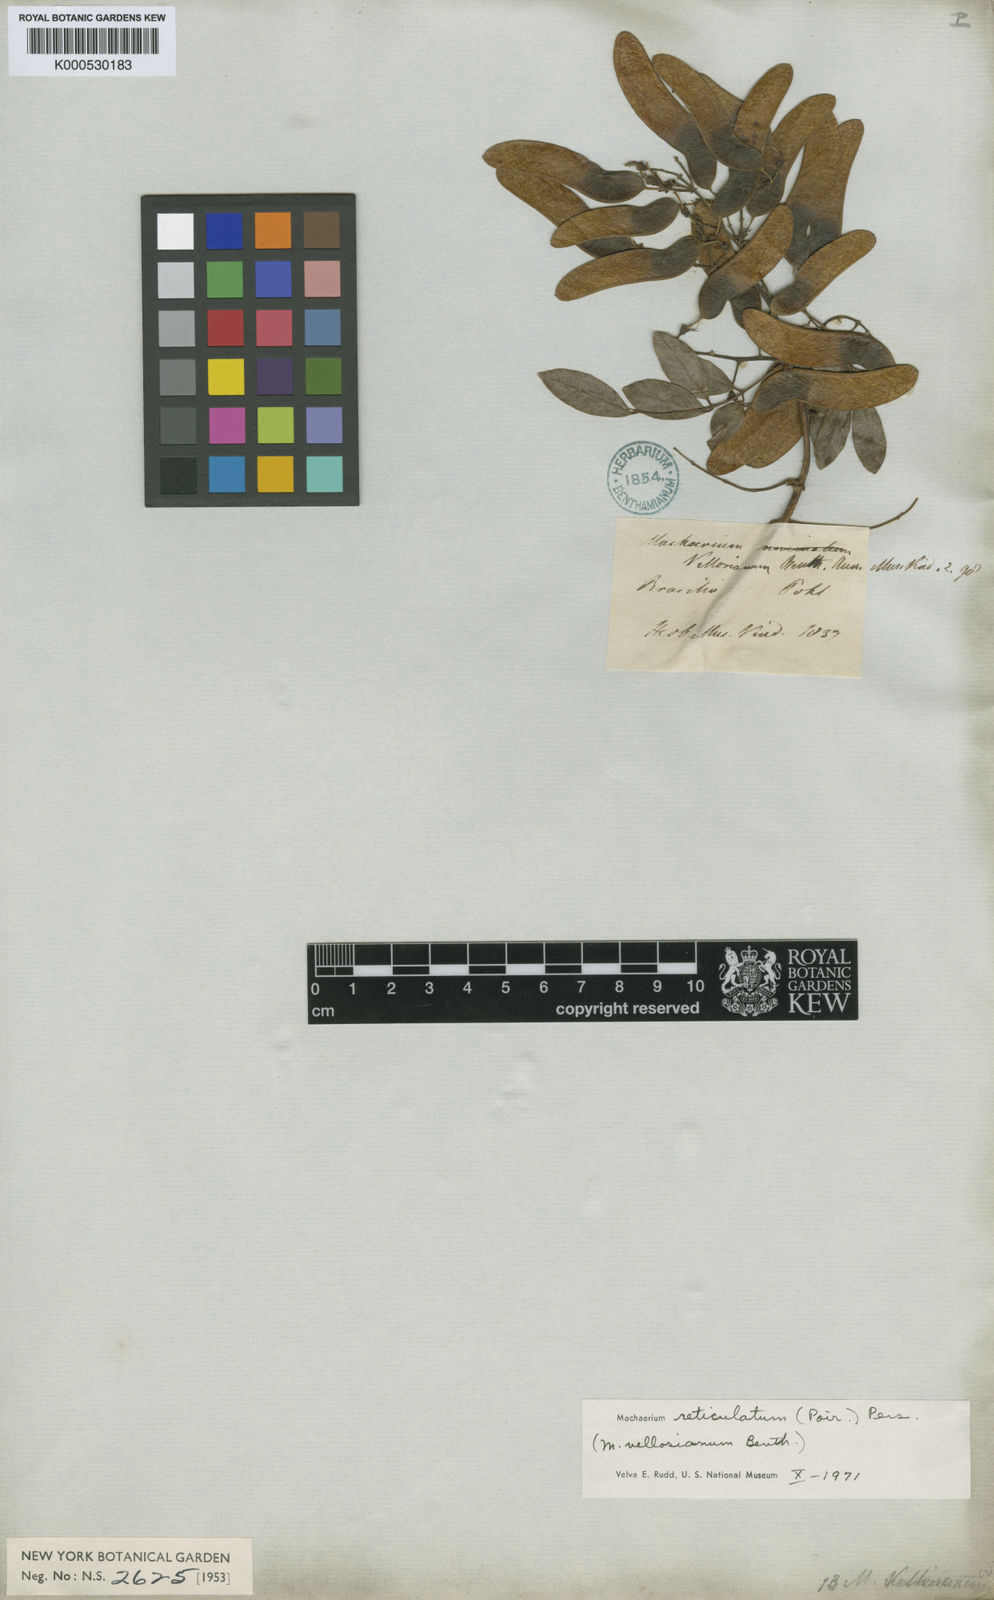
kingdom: Plantae
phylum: Tracheophyta
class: Magnoliopsida
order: Fabales
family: Fabaceae
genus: Machaerium
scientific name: Machaerium reticulatum
